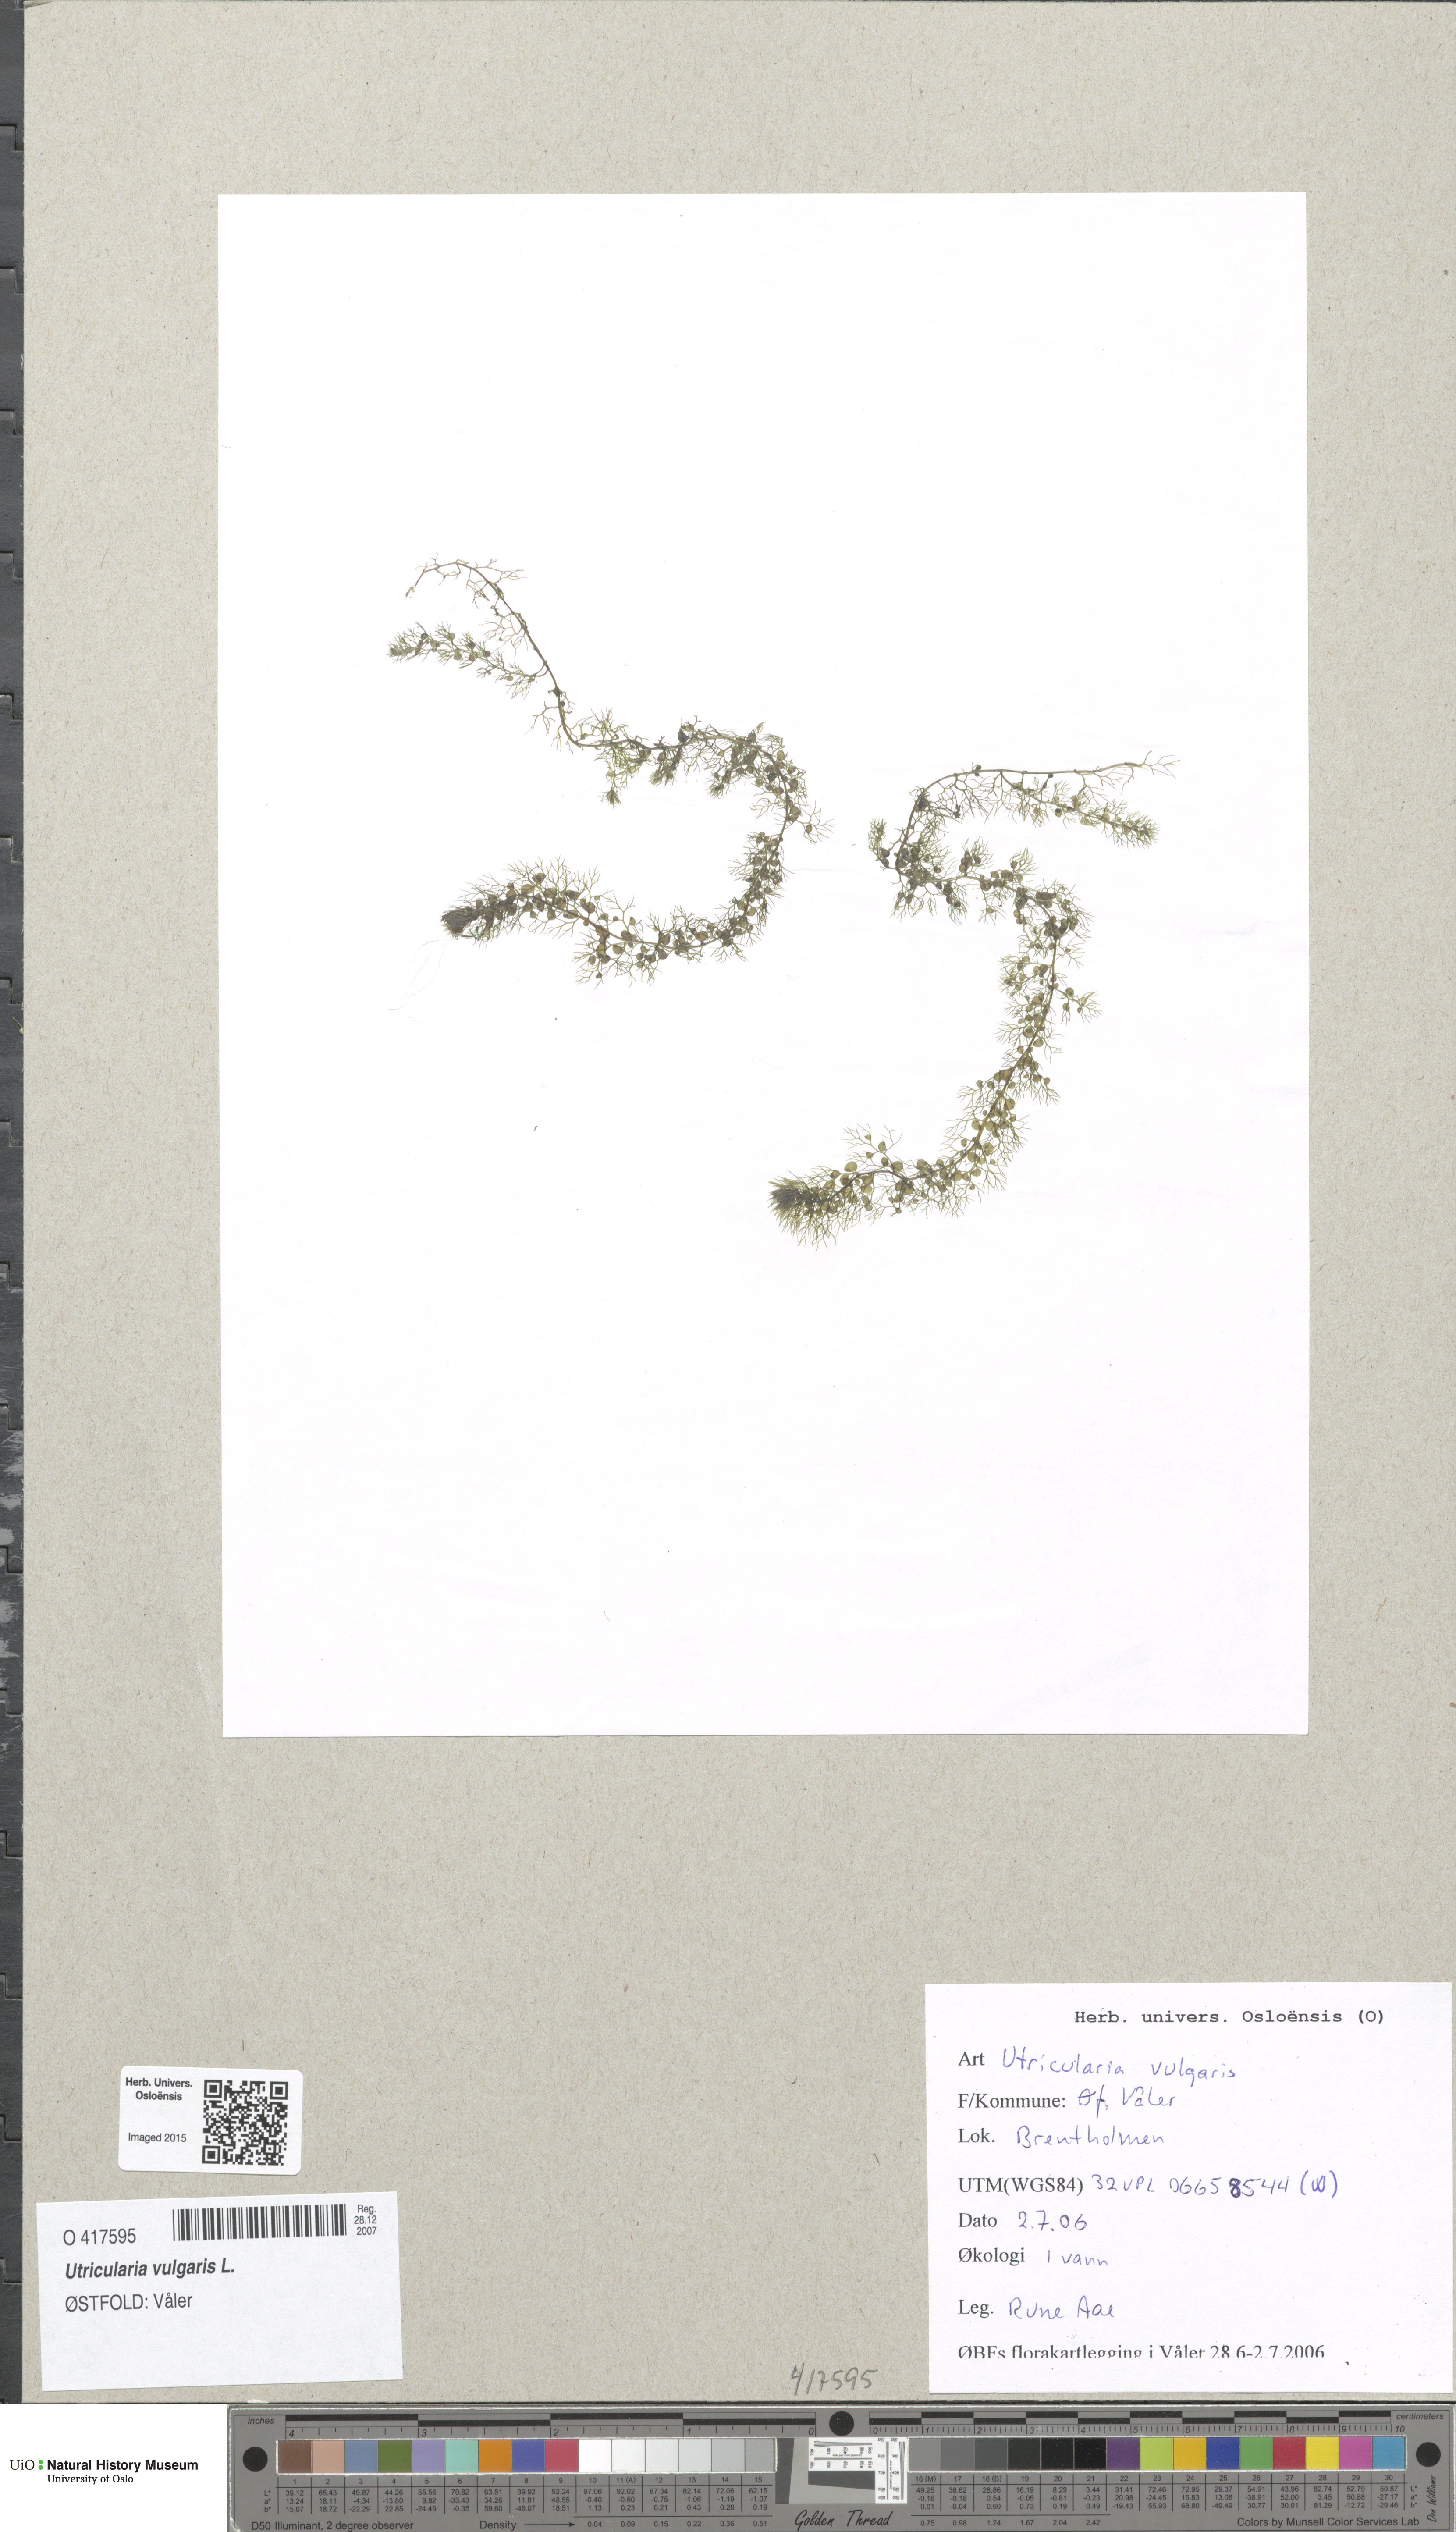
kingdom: Plantae
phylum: Tracheophyta
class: Magnoliopsida
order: Lamiales
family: Lentibulariaceae
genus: Utricularia
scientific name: Utricularia vulgaris
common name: Greater bladderwort
